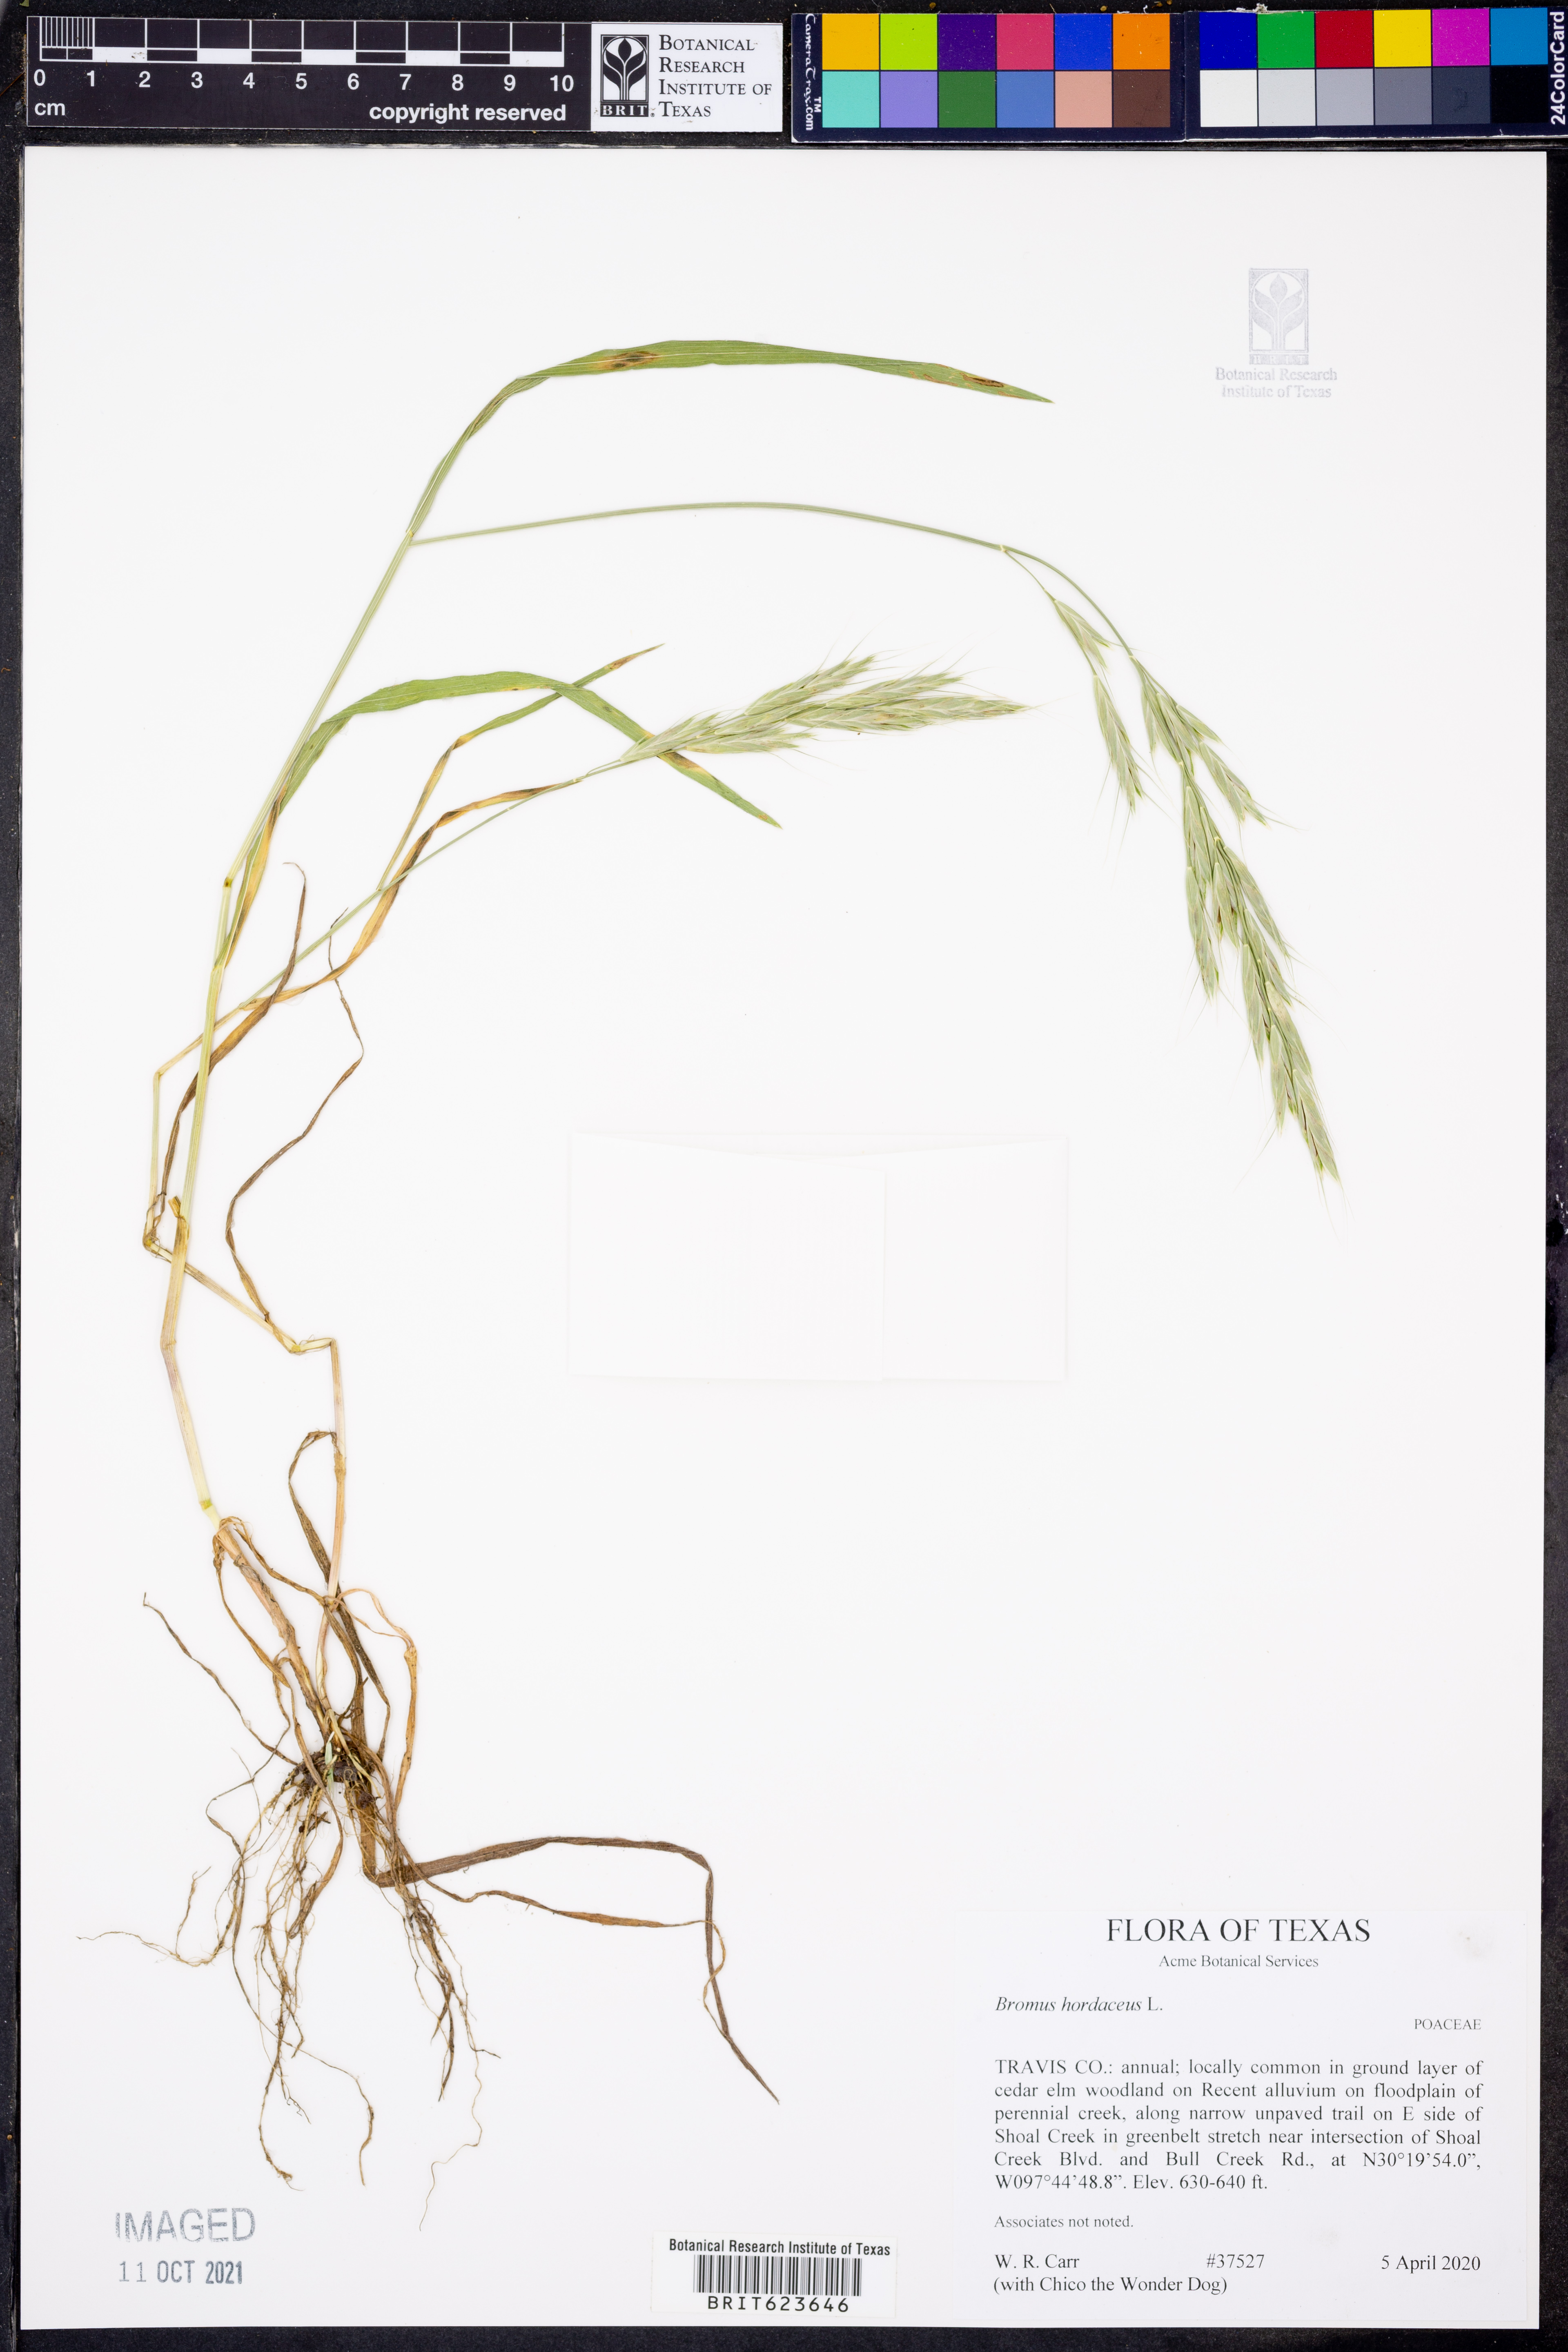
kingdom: Plantae
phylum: Tracheophyta
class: Liliopsida
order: Poales
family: Poaceae
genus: Bromus
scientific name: Bromus hordeaceus
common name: Soft brome
